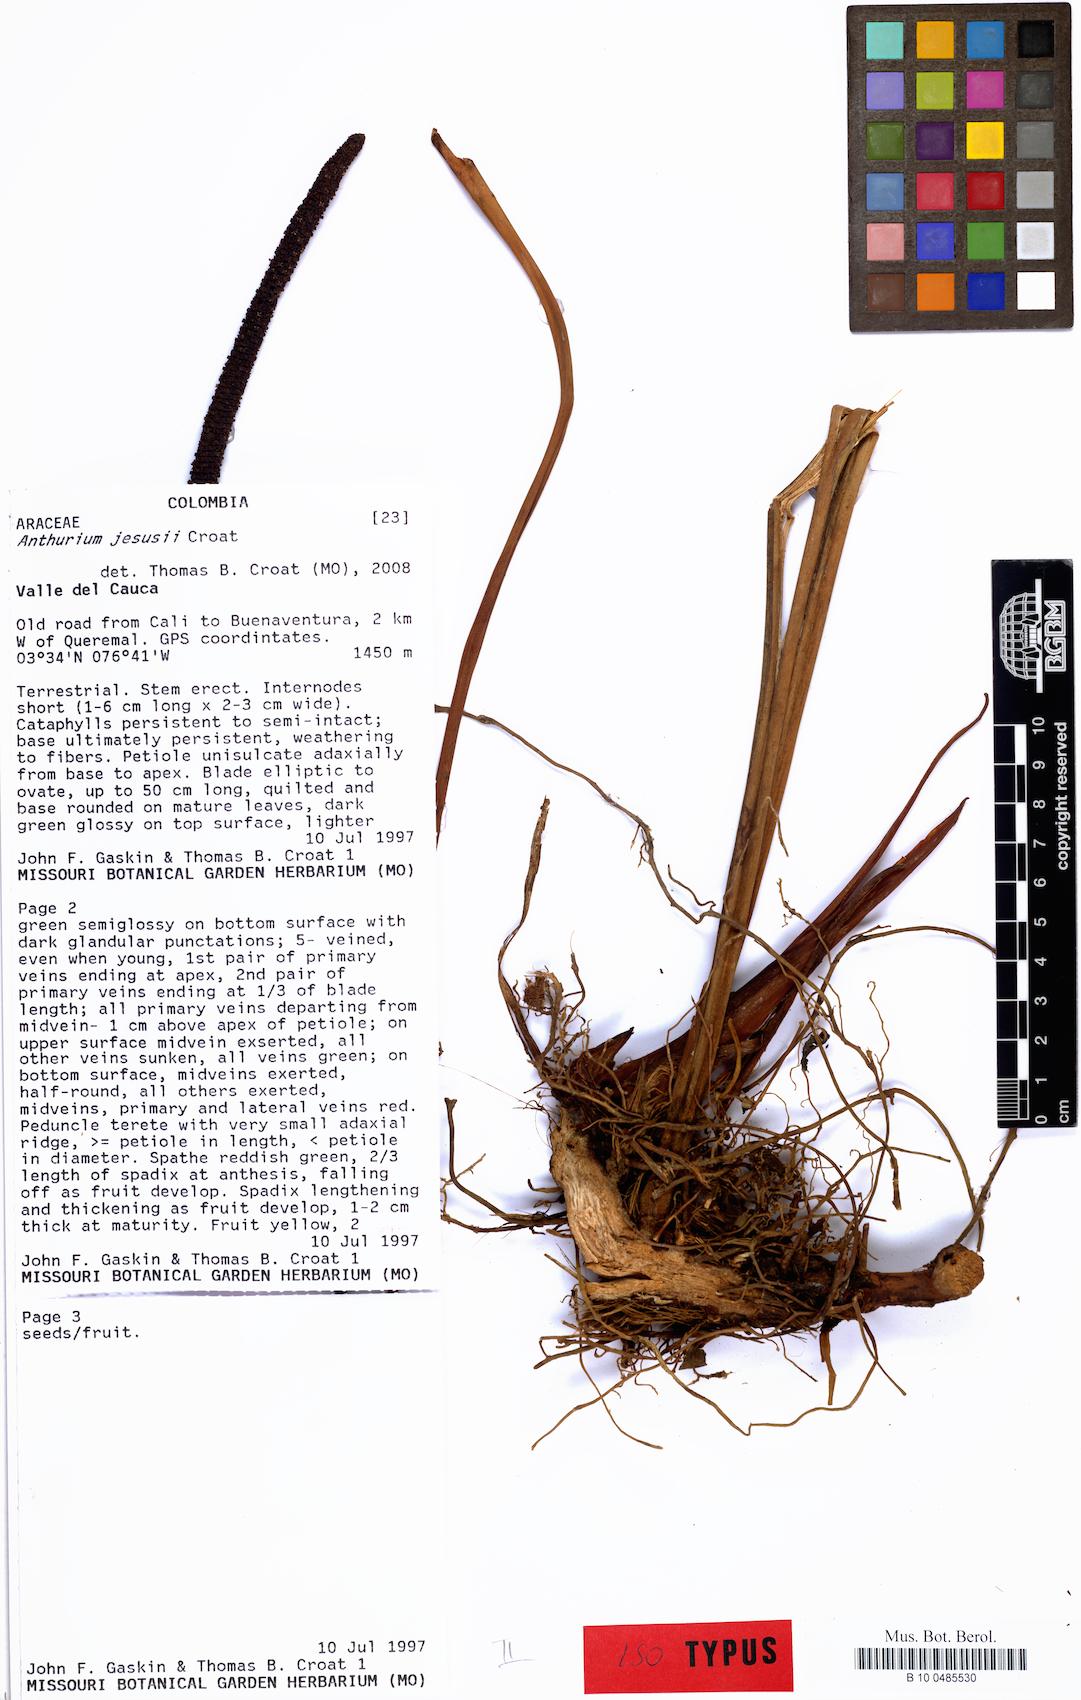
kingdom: Plantae
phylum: Tracheophyta
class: Liliopsida
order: Alismatales
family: Araceae
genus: Anthurium
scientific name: Anthurium jesusii
